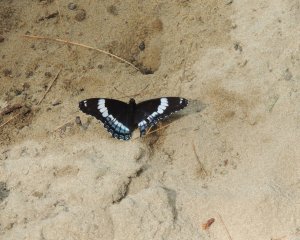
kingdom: Animalia
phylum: Arthropoda
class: Insecta
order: Lepidoptera
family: Nymphalidae
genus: Limenitis
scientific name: Limenitis arthemis
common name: Red-spotted Admiral
